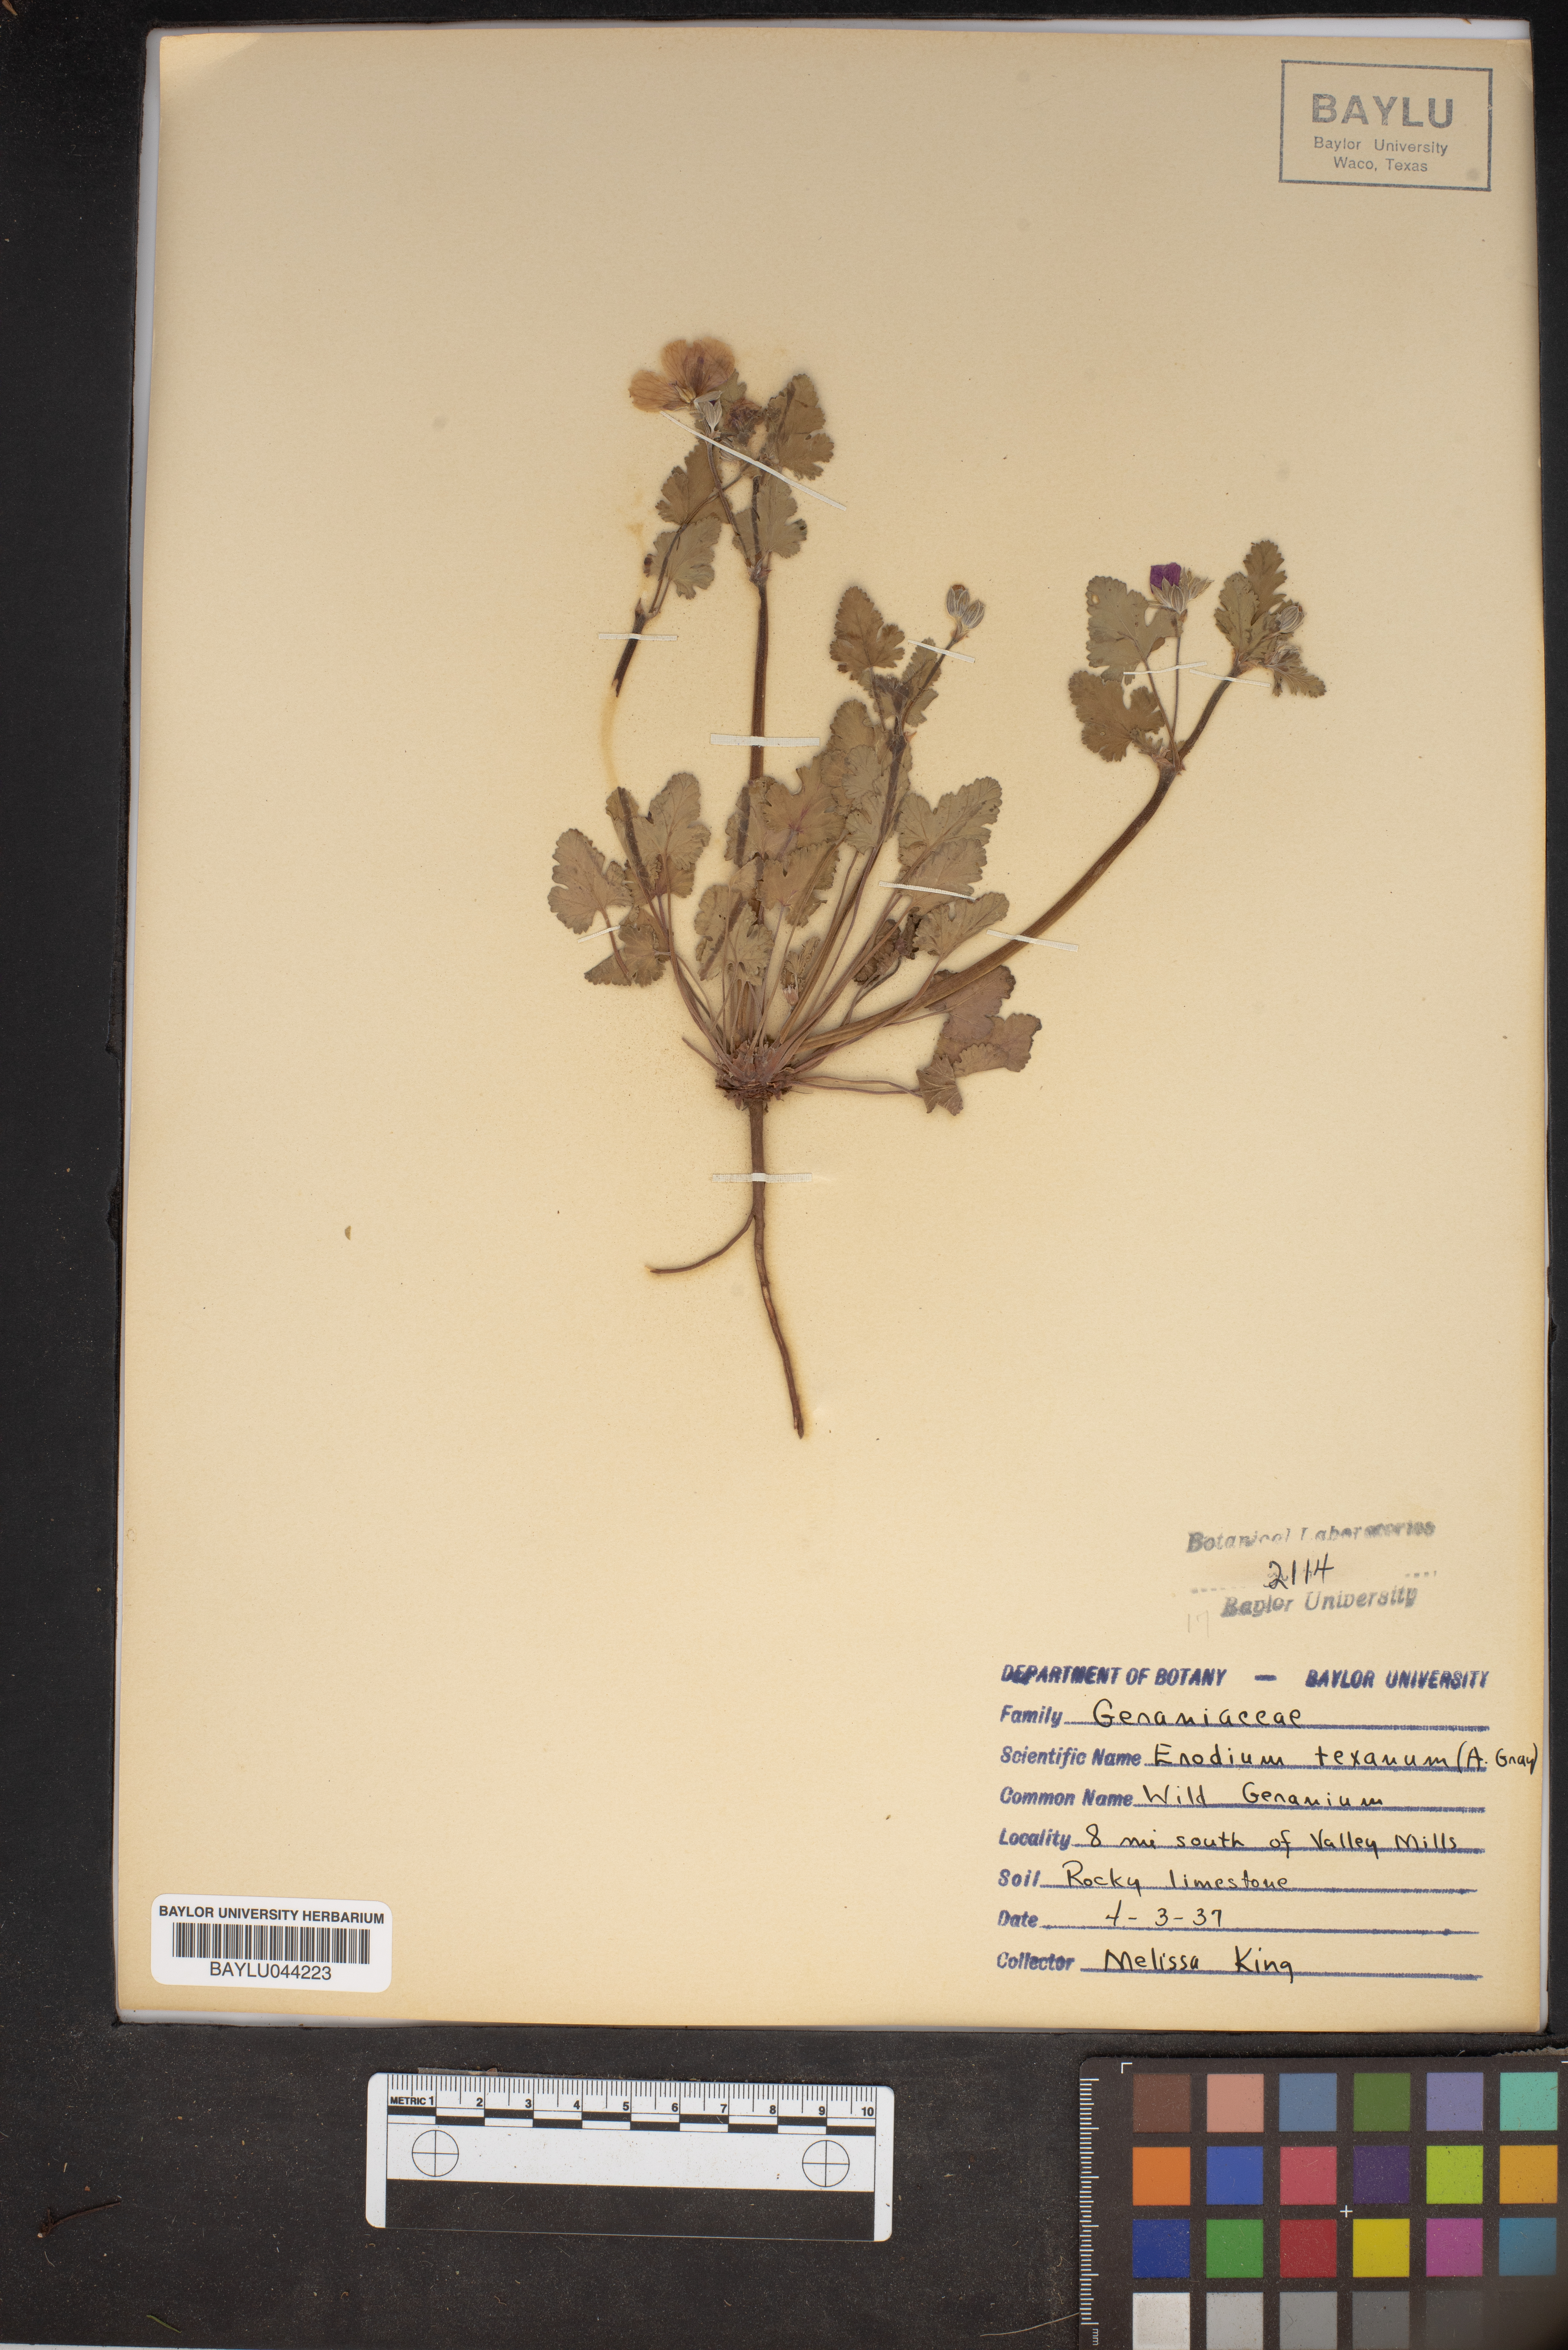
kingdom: Plantae
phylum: Tracheophyta
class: Magnoliopsida
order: Geraniales
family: Geraniaceae
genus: Erodium
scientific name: Erodium texanum
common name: Texas stork's-bill
